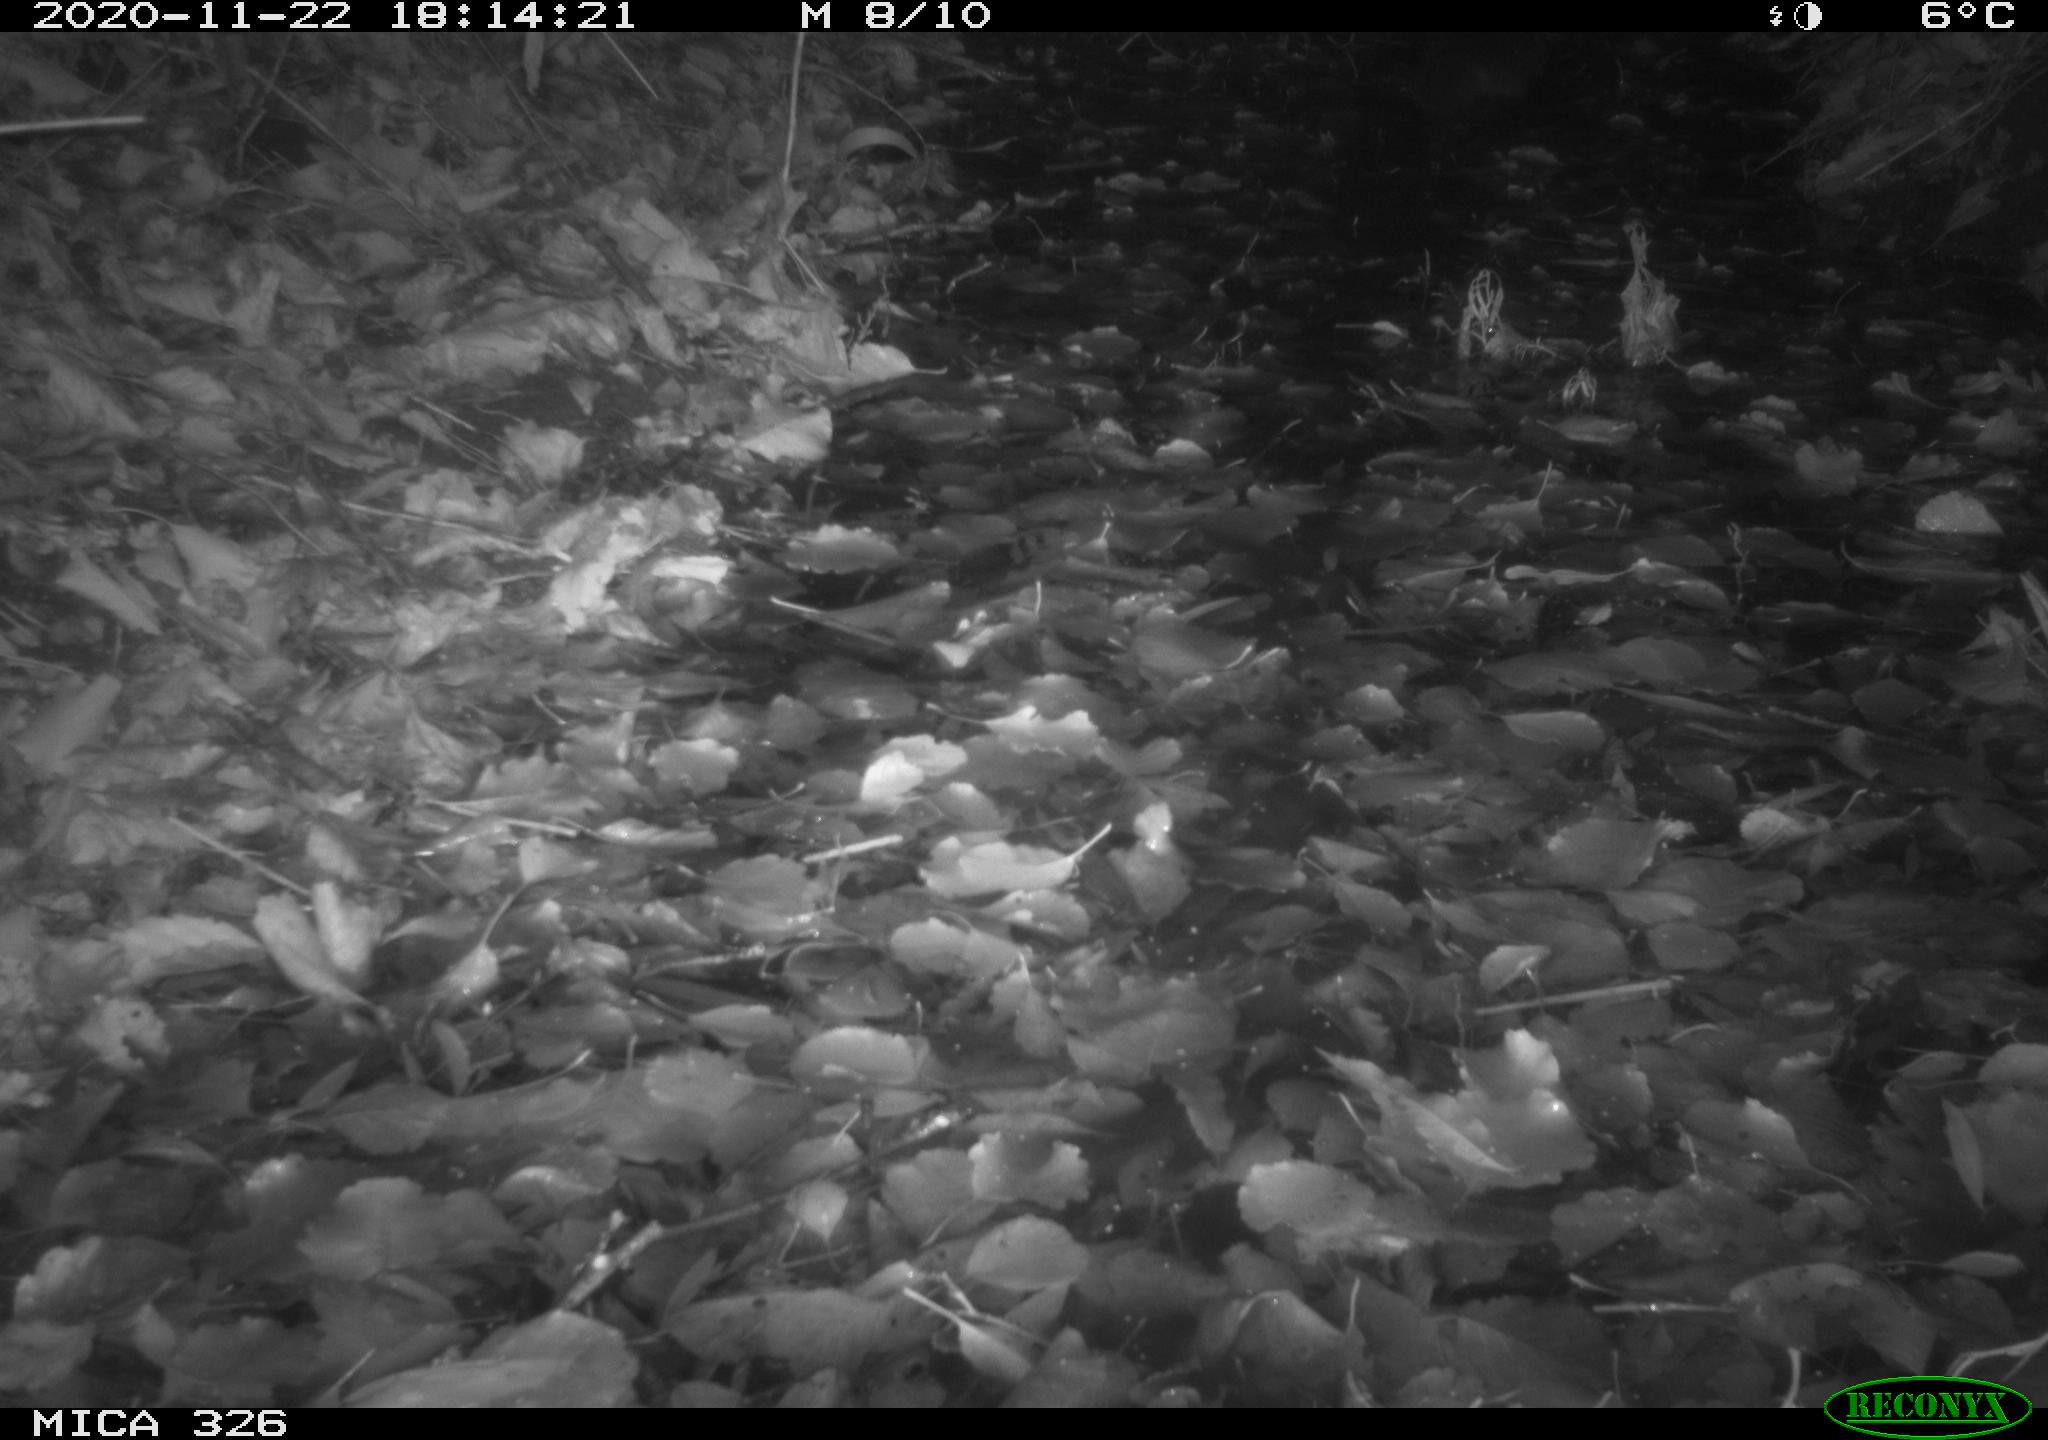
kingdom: Animalia
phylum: Chordata
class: Mammalia
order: Carnivora
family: Mustelidae
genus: Lutra
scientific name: Lutra lutra
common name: European otter
